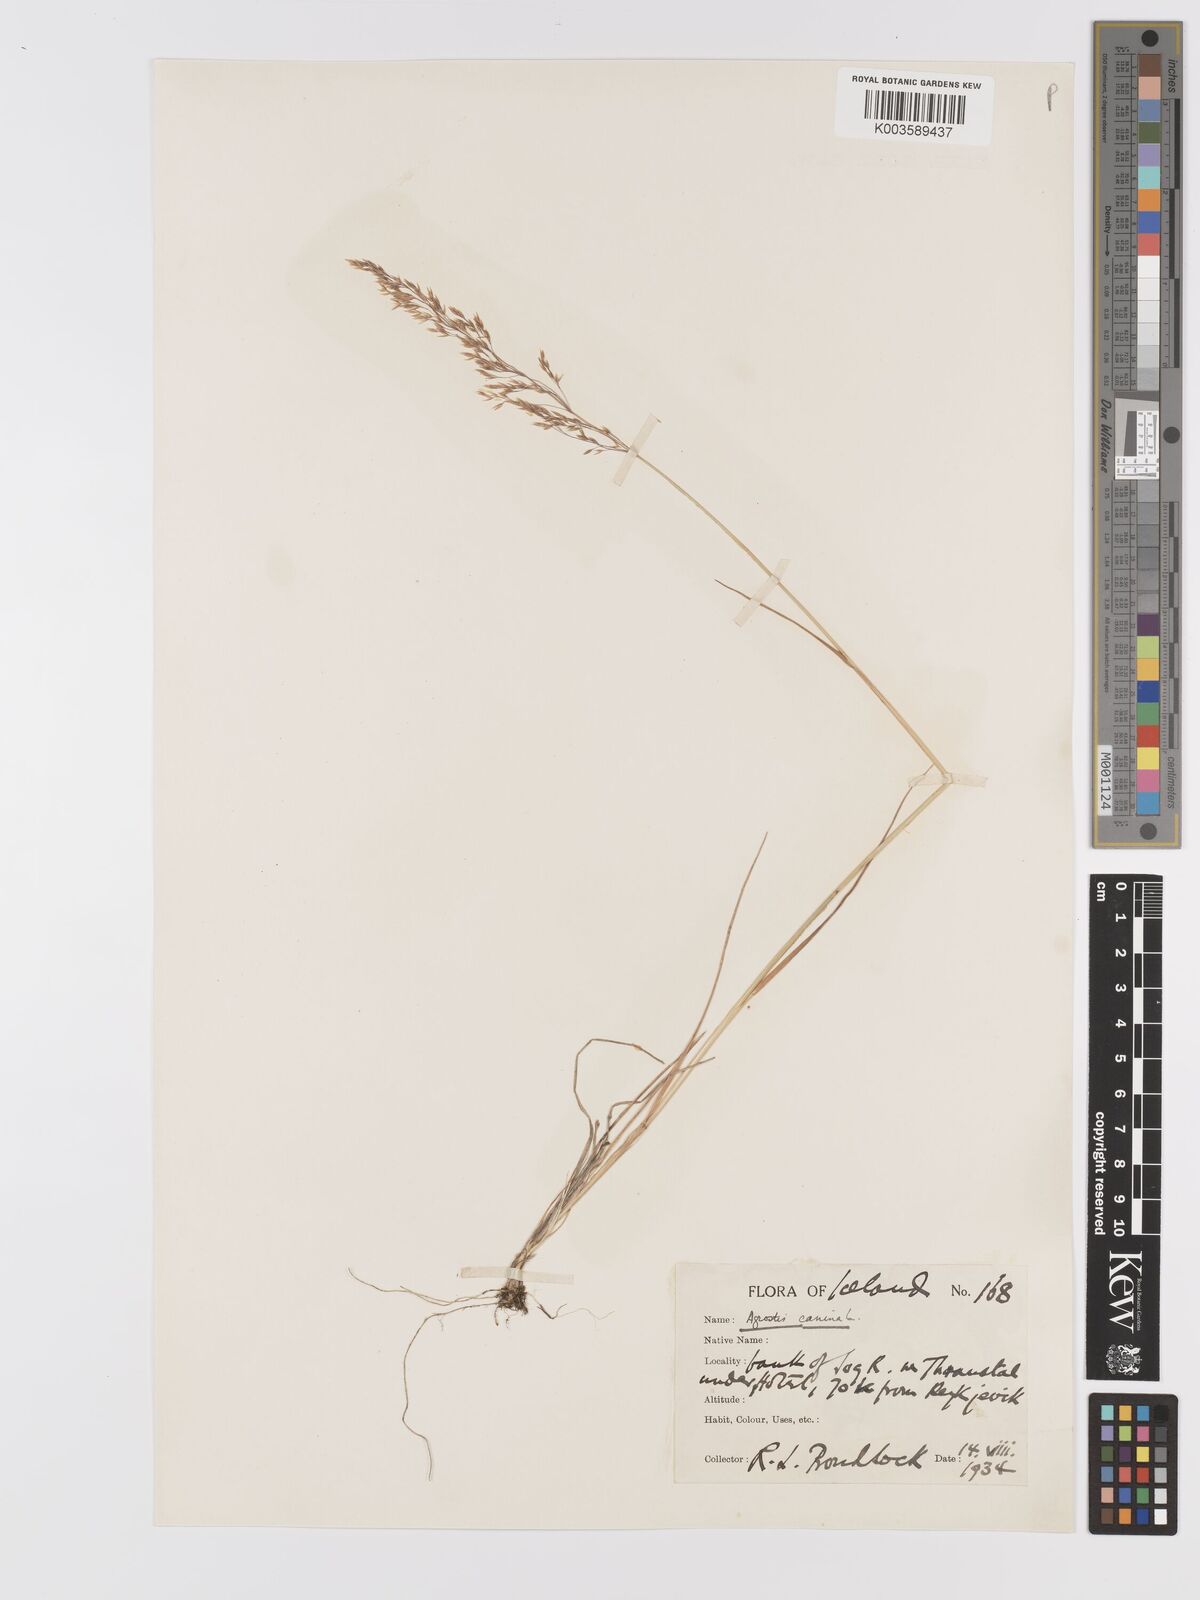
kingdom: Plantae
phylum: Tracheophyta
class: Liliopsida
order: Poales
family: Poaceae
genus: Agrostis
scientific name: Agrostis canina
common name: Velvet bent
